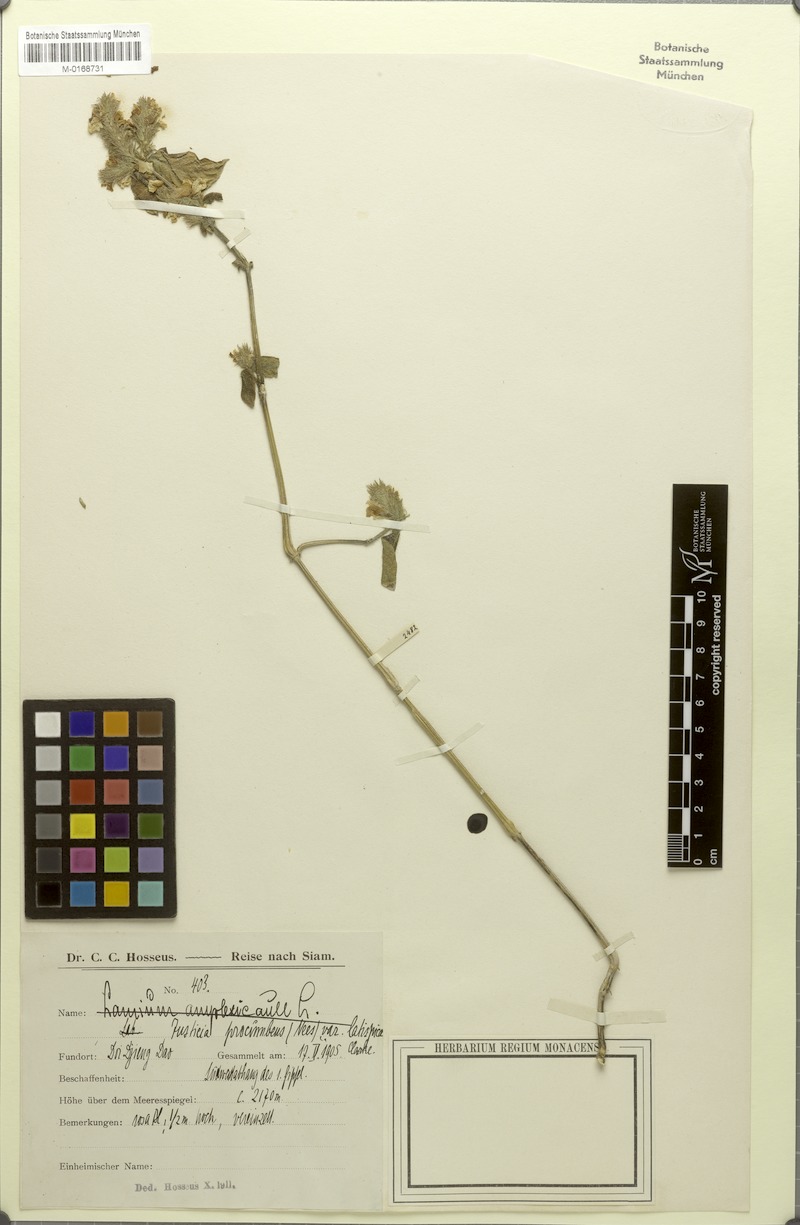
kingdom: Plantae
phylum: Tracheophyta
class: Magnoliopsida
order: Lamiales
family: Acanthaceae
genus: Rostellularia
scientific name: Rostellularia mollissima
